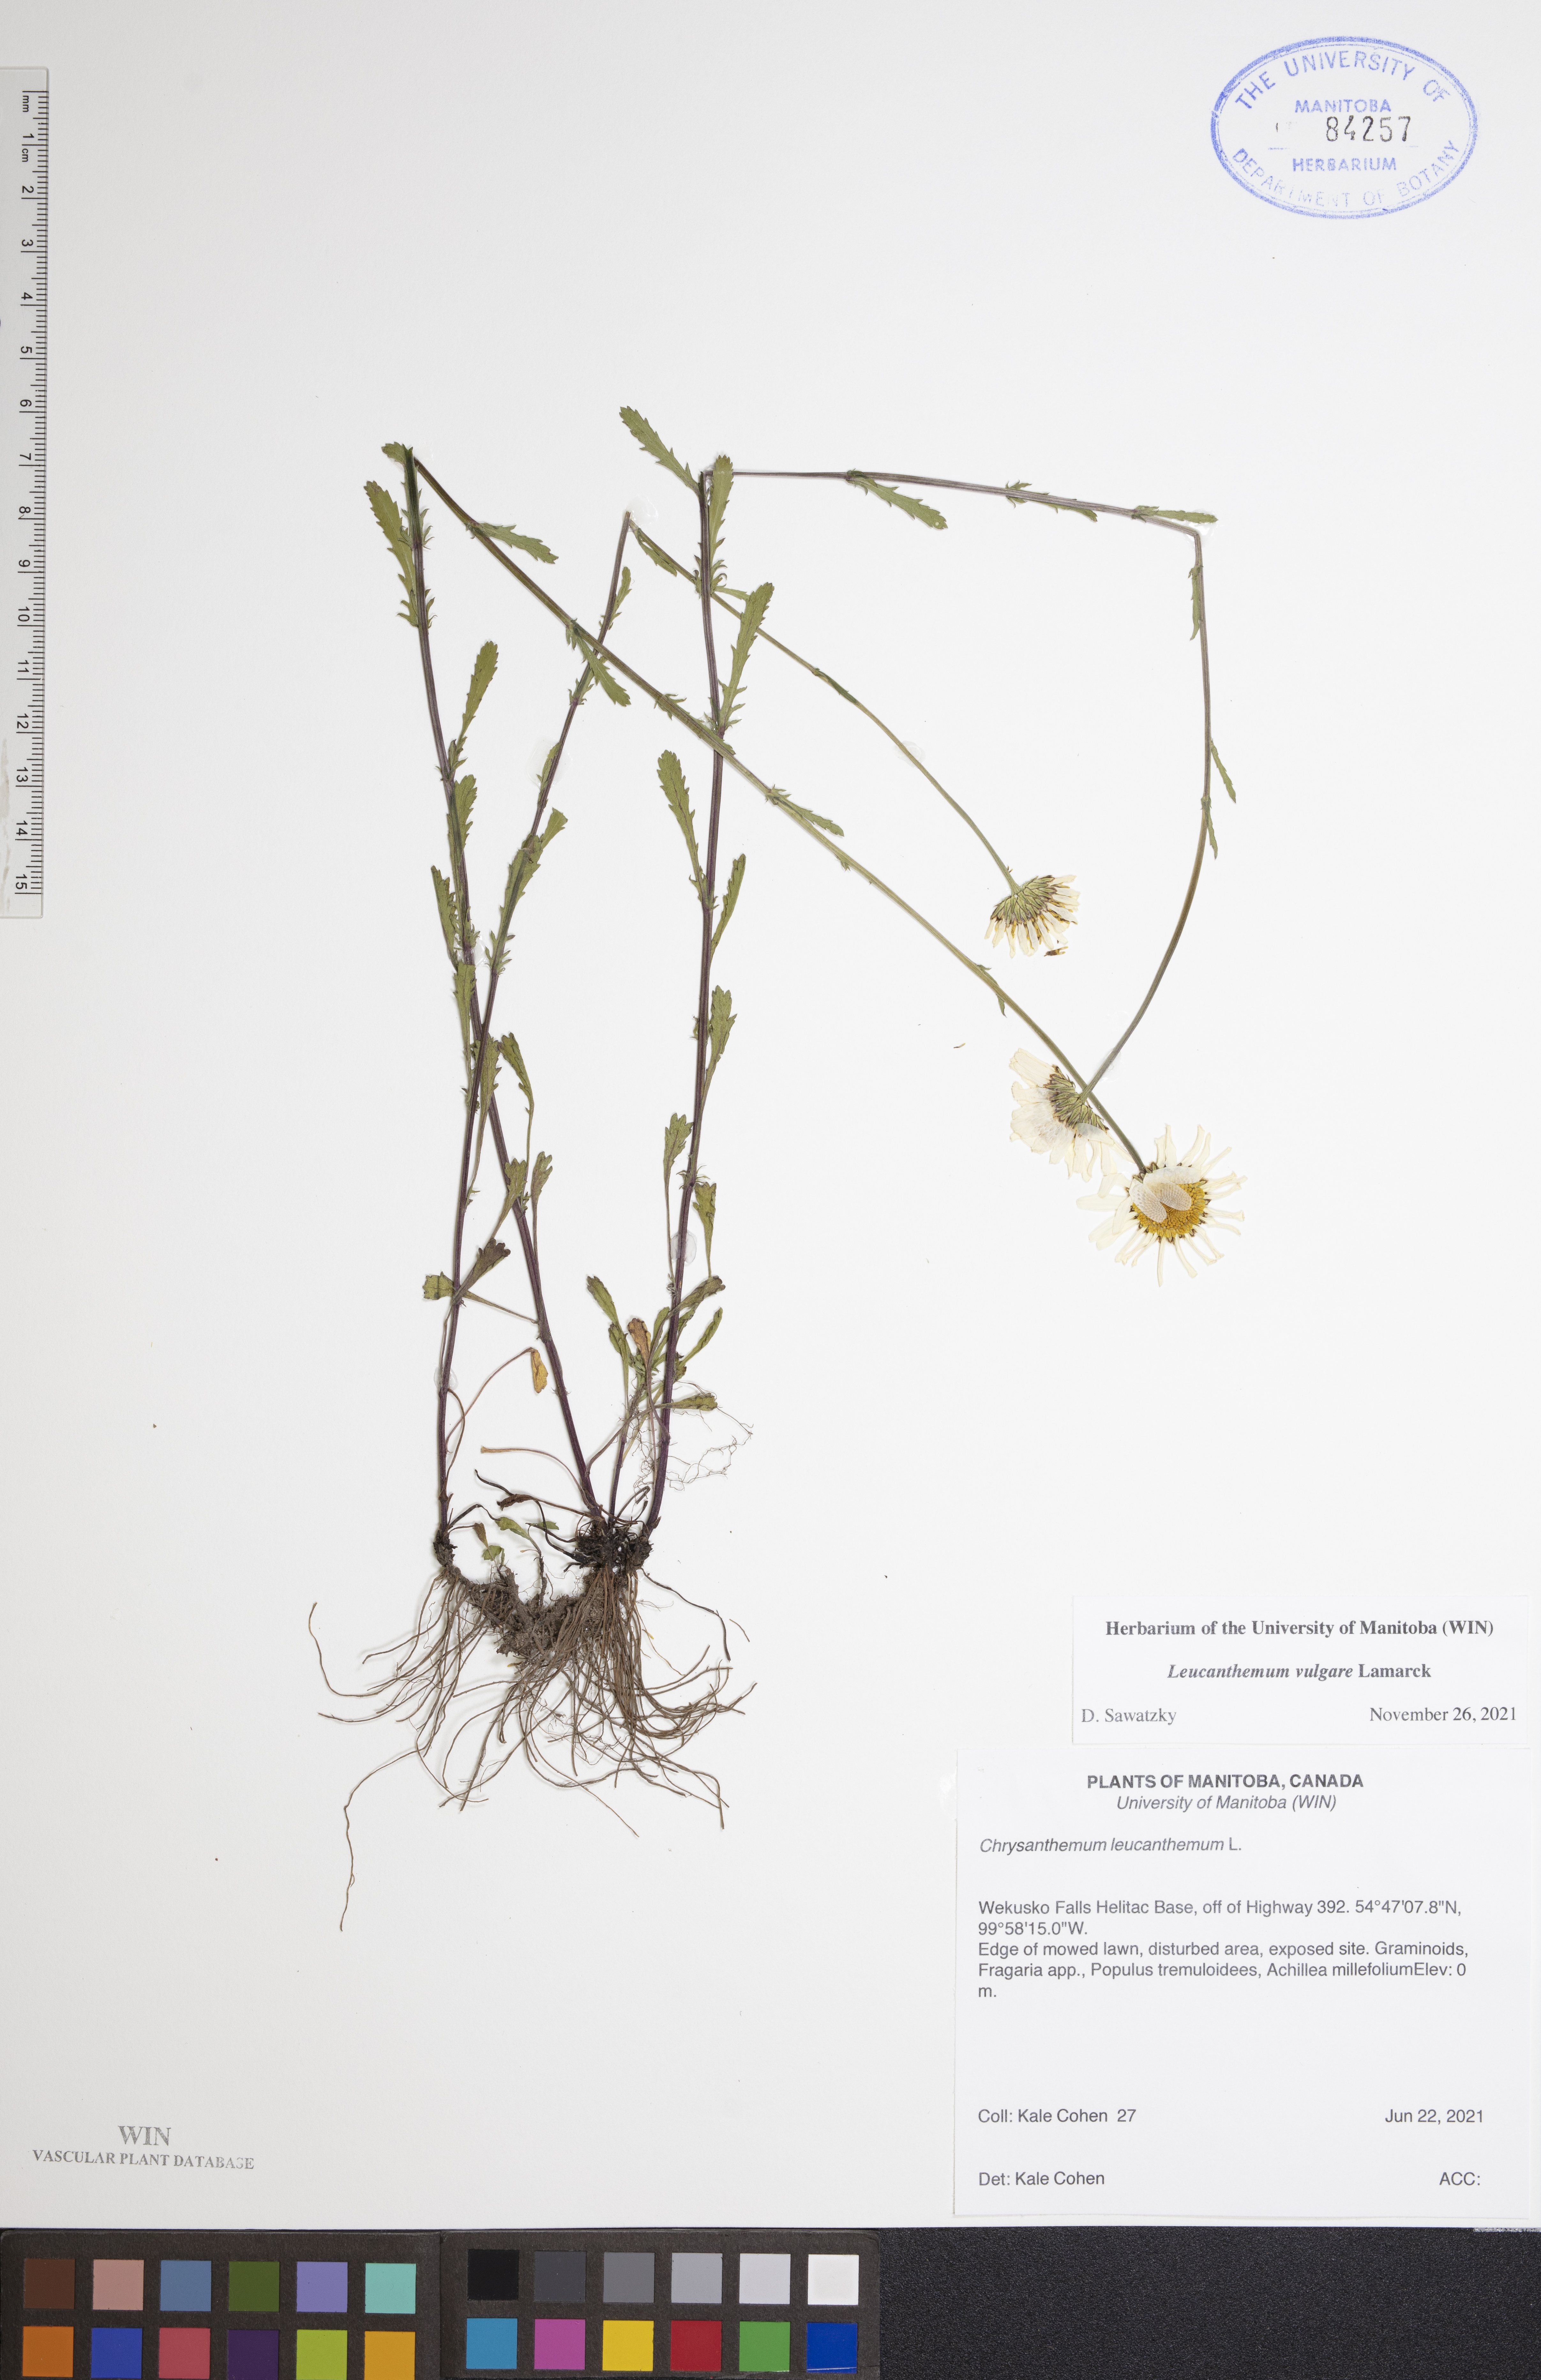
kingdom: Plantae
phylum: Tracheophyta
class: Magnoliopsida
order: Asterales
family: Asteraceae
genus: Leucanthemum
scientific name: Leucanthemum vulgare
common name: Oxeye daisy
